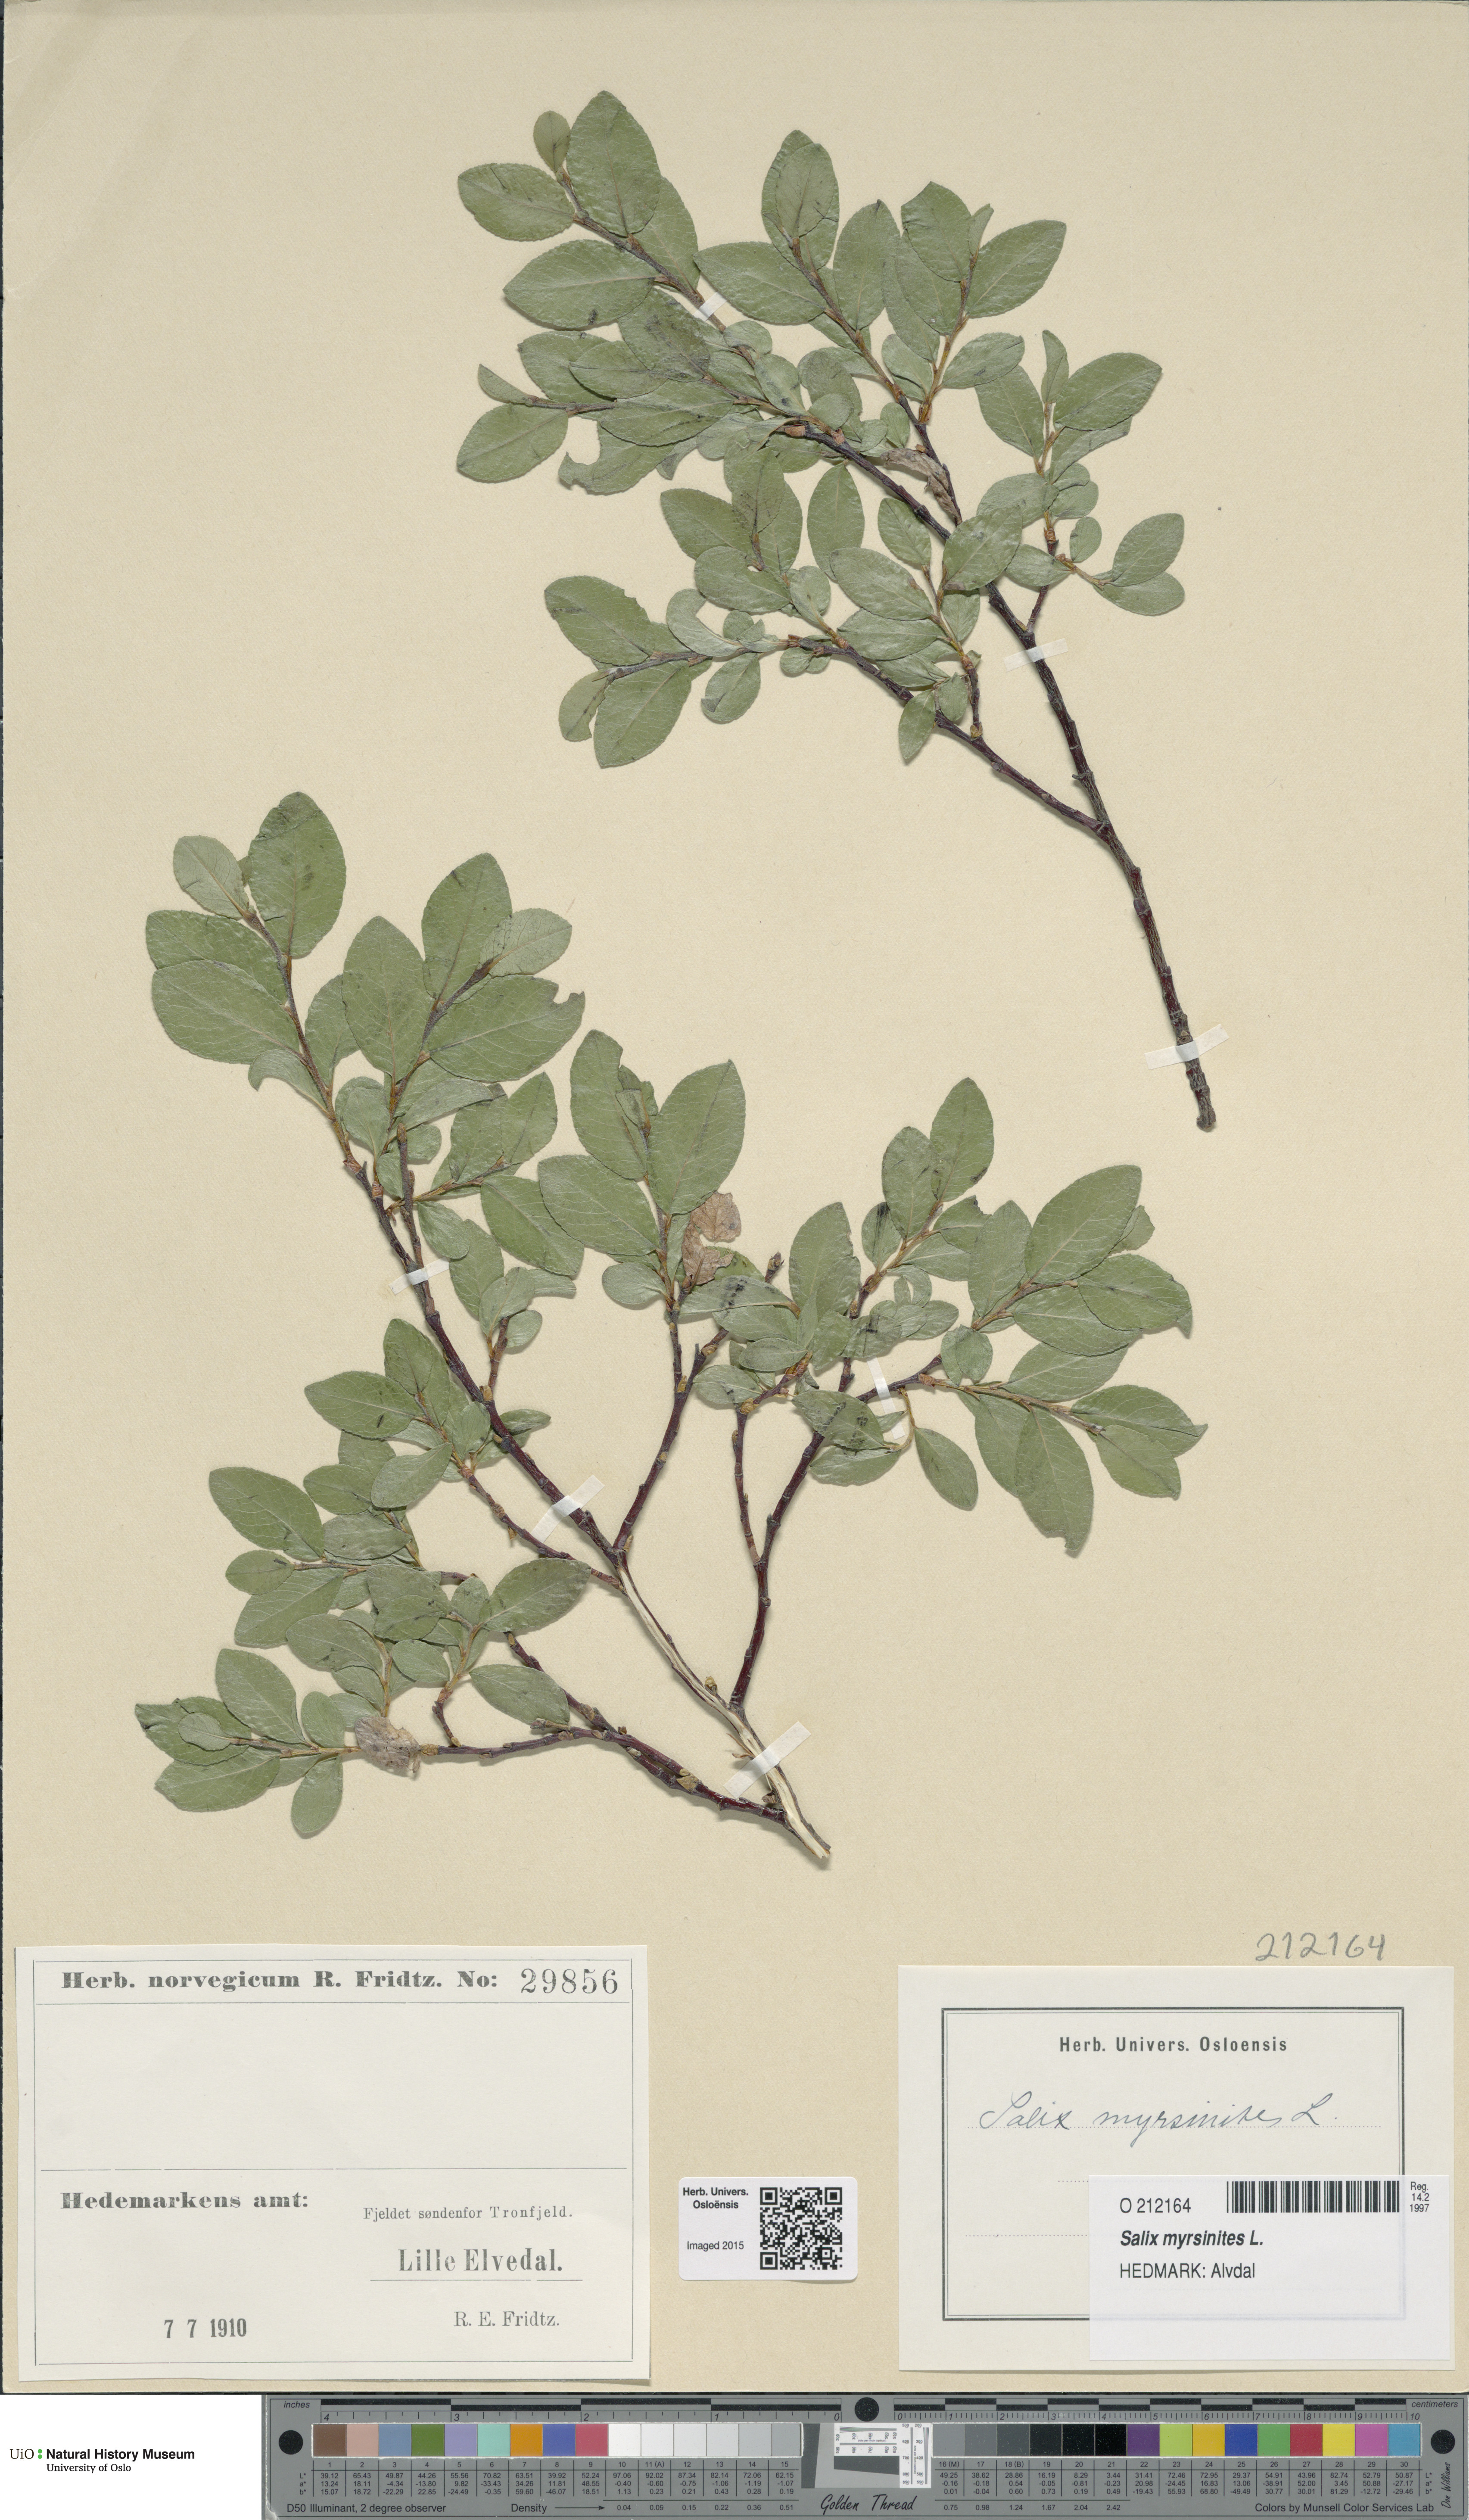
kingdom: Plantae
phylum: Tracheophyta
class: Magnoliopsida
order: Malpighiales
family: Salicaceae
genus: Salix
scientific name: Salix myrsinites
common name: Myrtle willow
